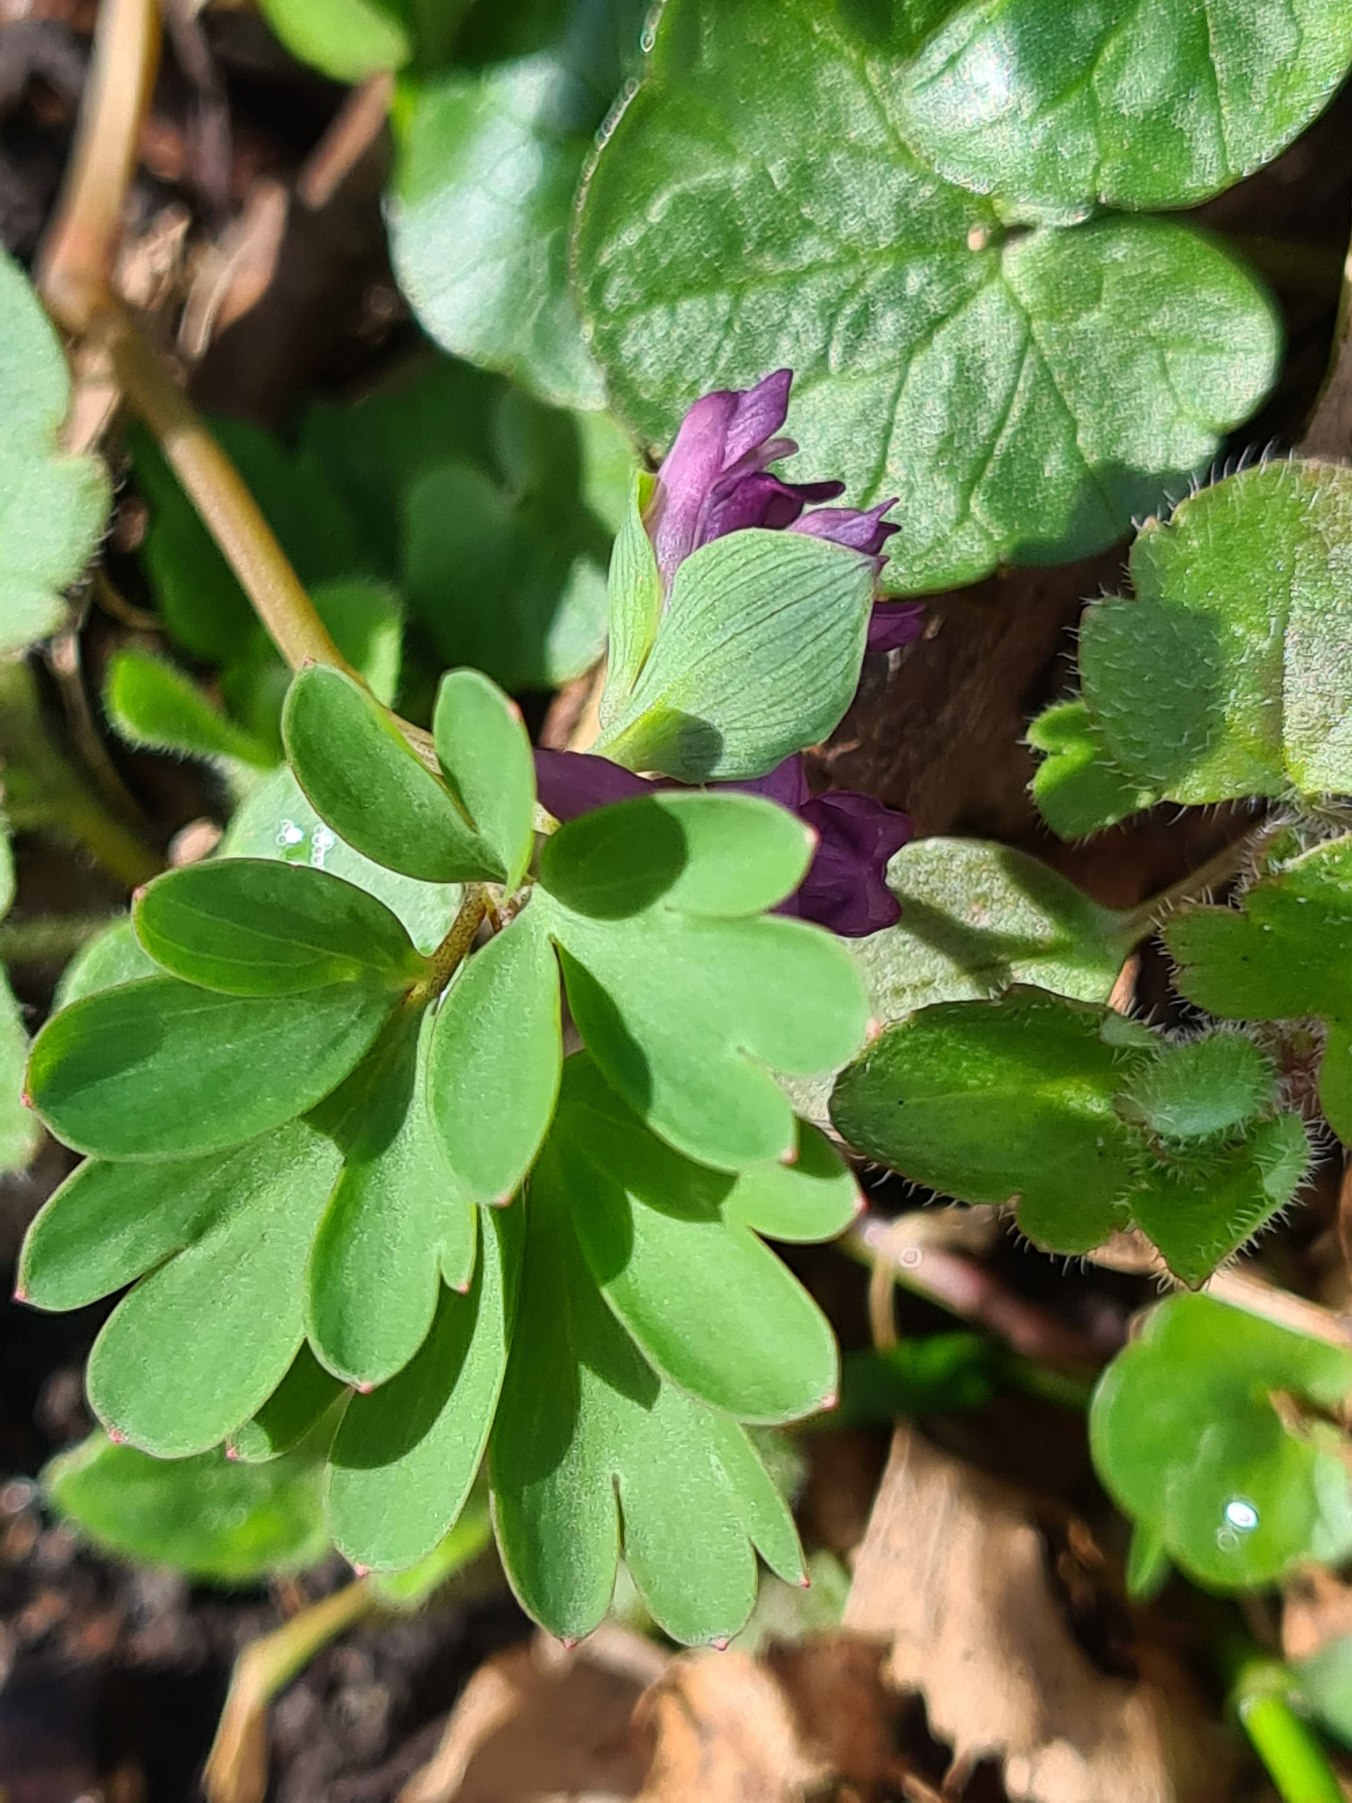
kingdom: Plantae
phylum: Tracheophyta
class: Magnoliopsida
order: Ranunculales
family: Papaveraceae
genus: Corydalis
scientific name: Corydalis intermedia
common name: Liden lærkespore
